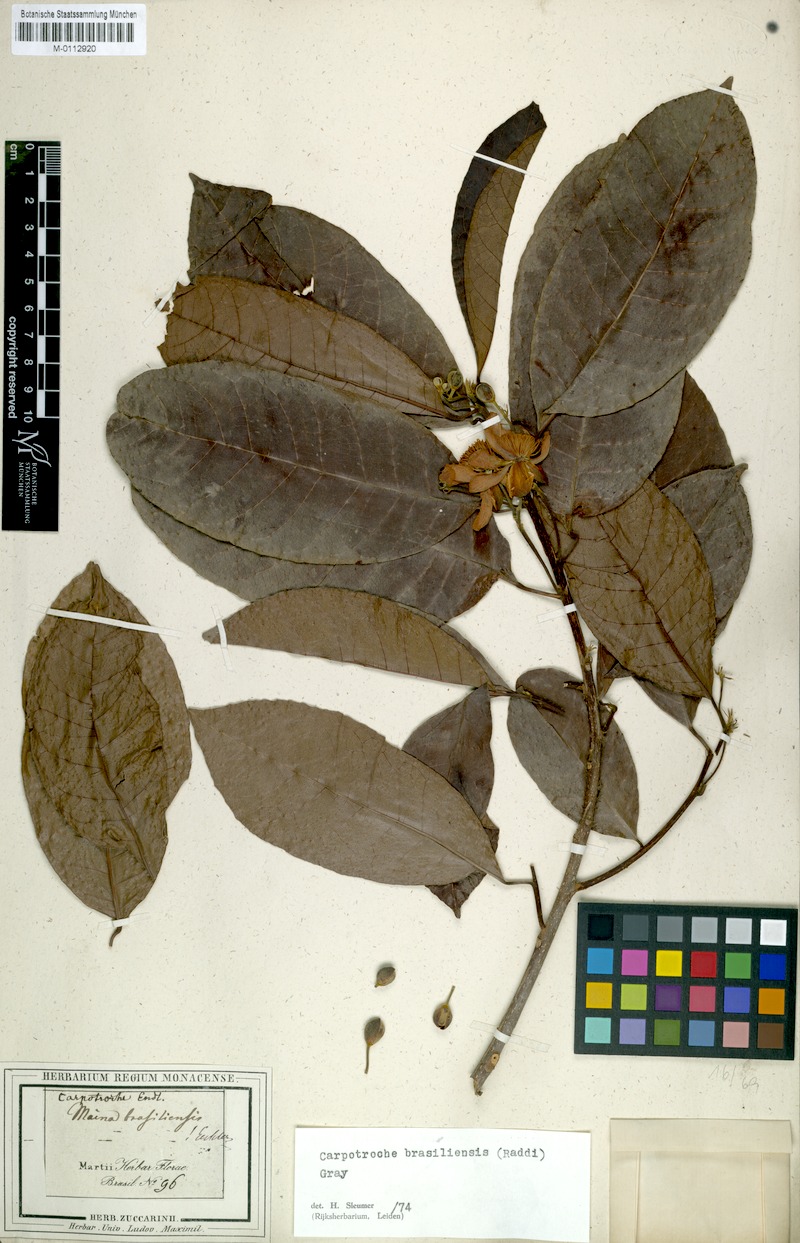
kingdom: Plantae
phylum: Tracheophyta
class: Magnoliopsida
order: Malpighiales
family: Achariaceae
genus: Carpotroche
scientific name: Carpotroche brasiliensis
